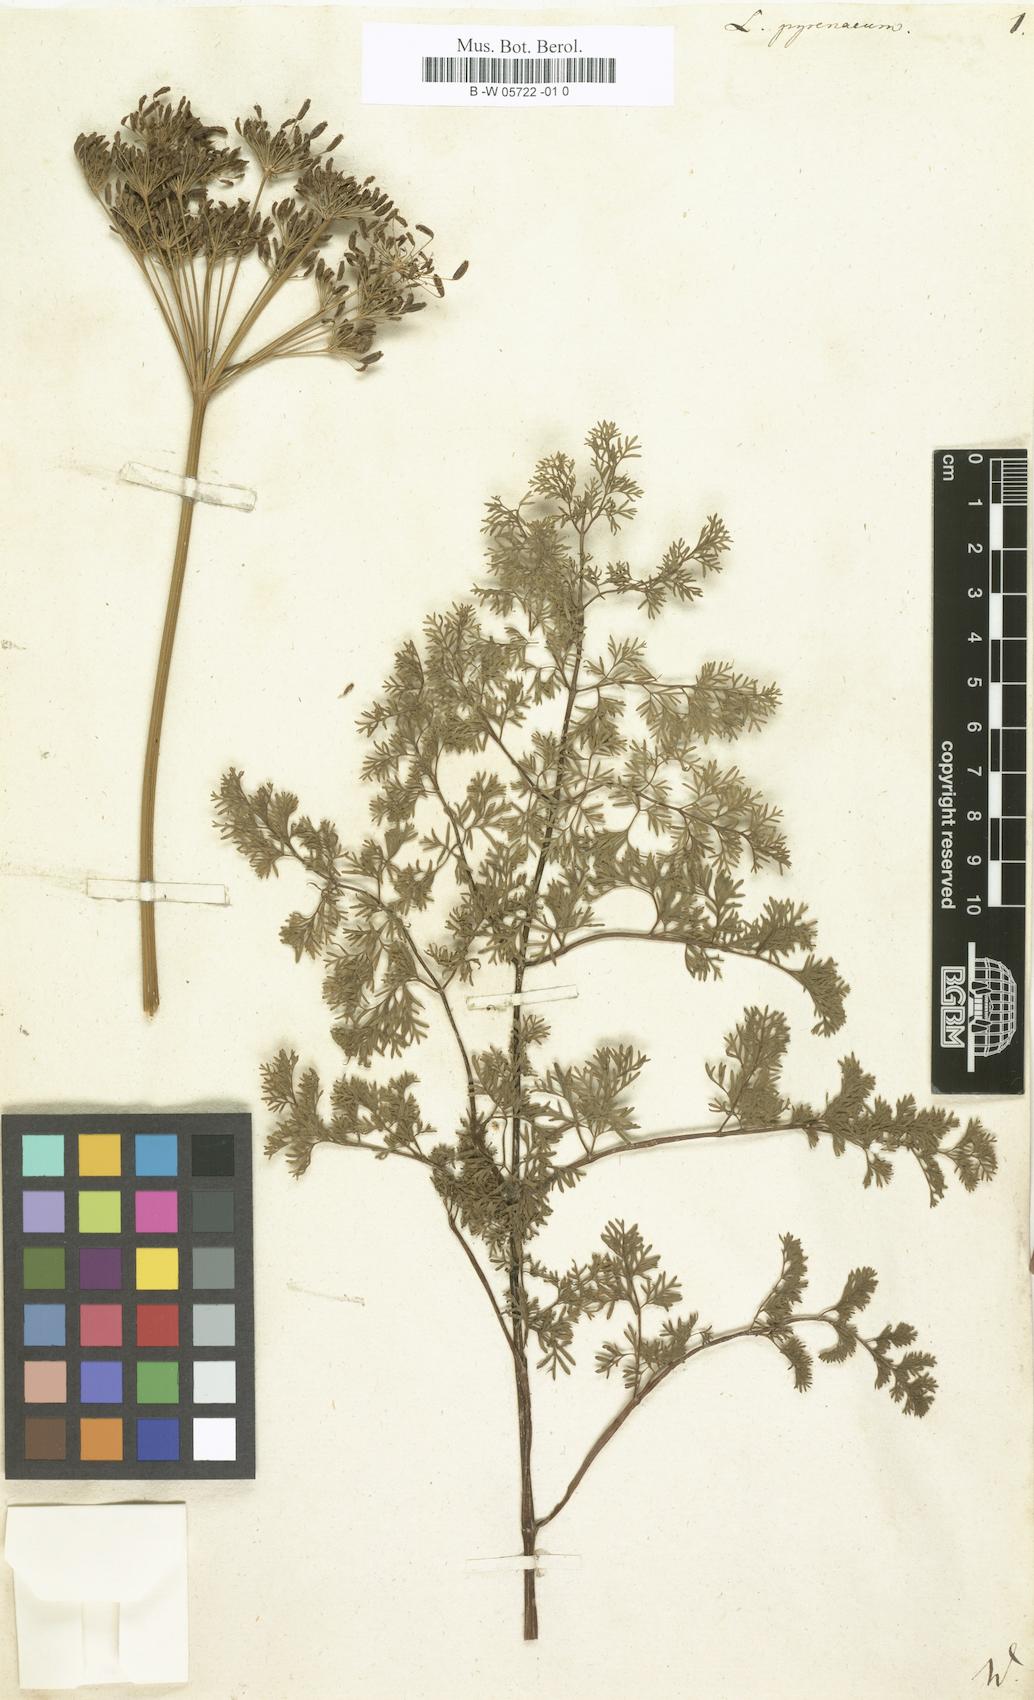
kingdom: Plantae
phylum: Tracheophyta
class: Magnoliopsida
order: Apiales
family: Apiaceae
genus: Epikeros
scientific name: Epikeros pyrenaeus
